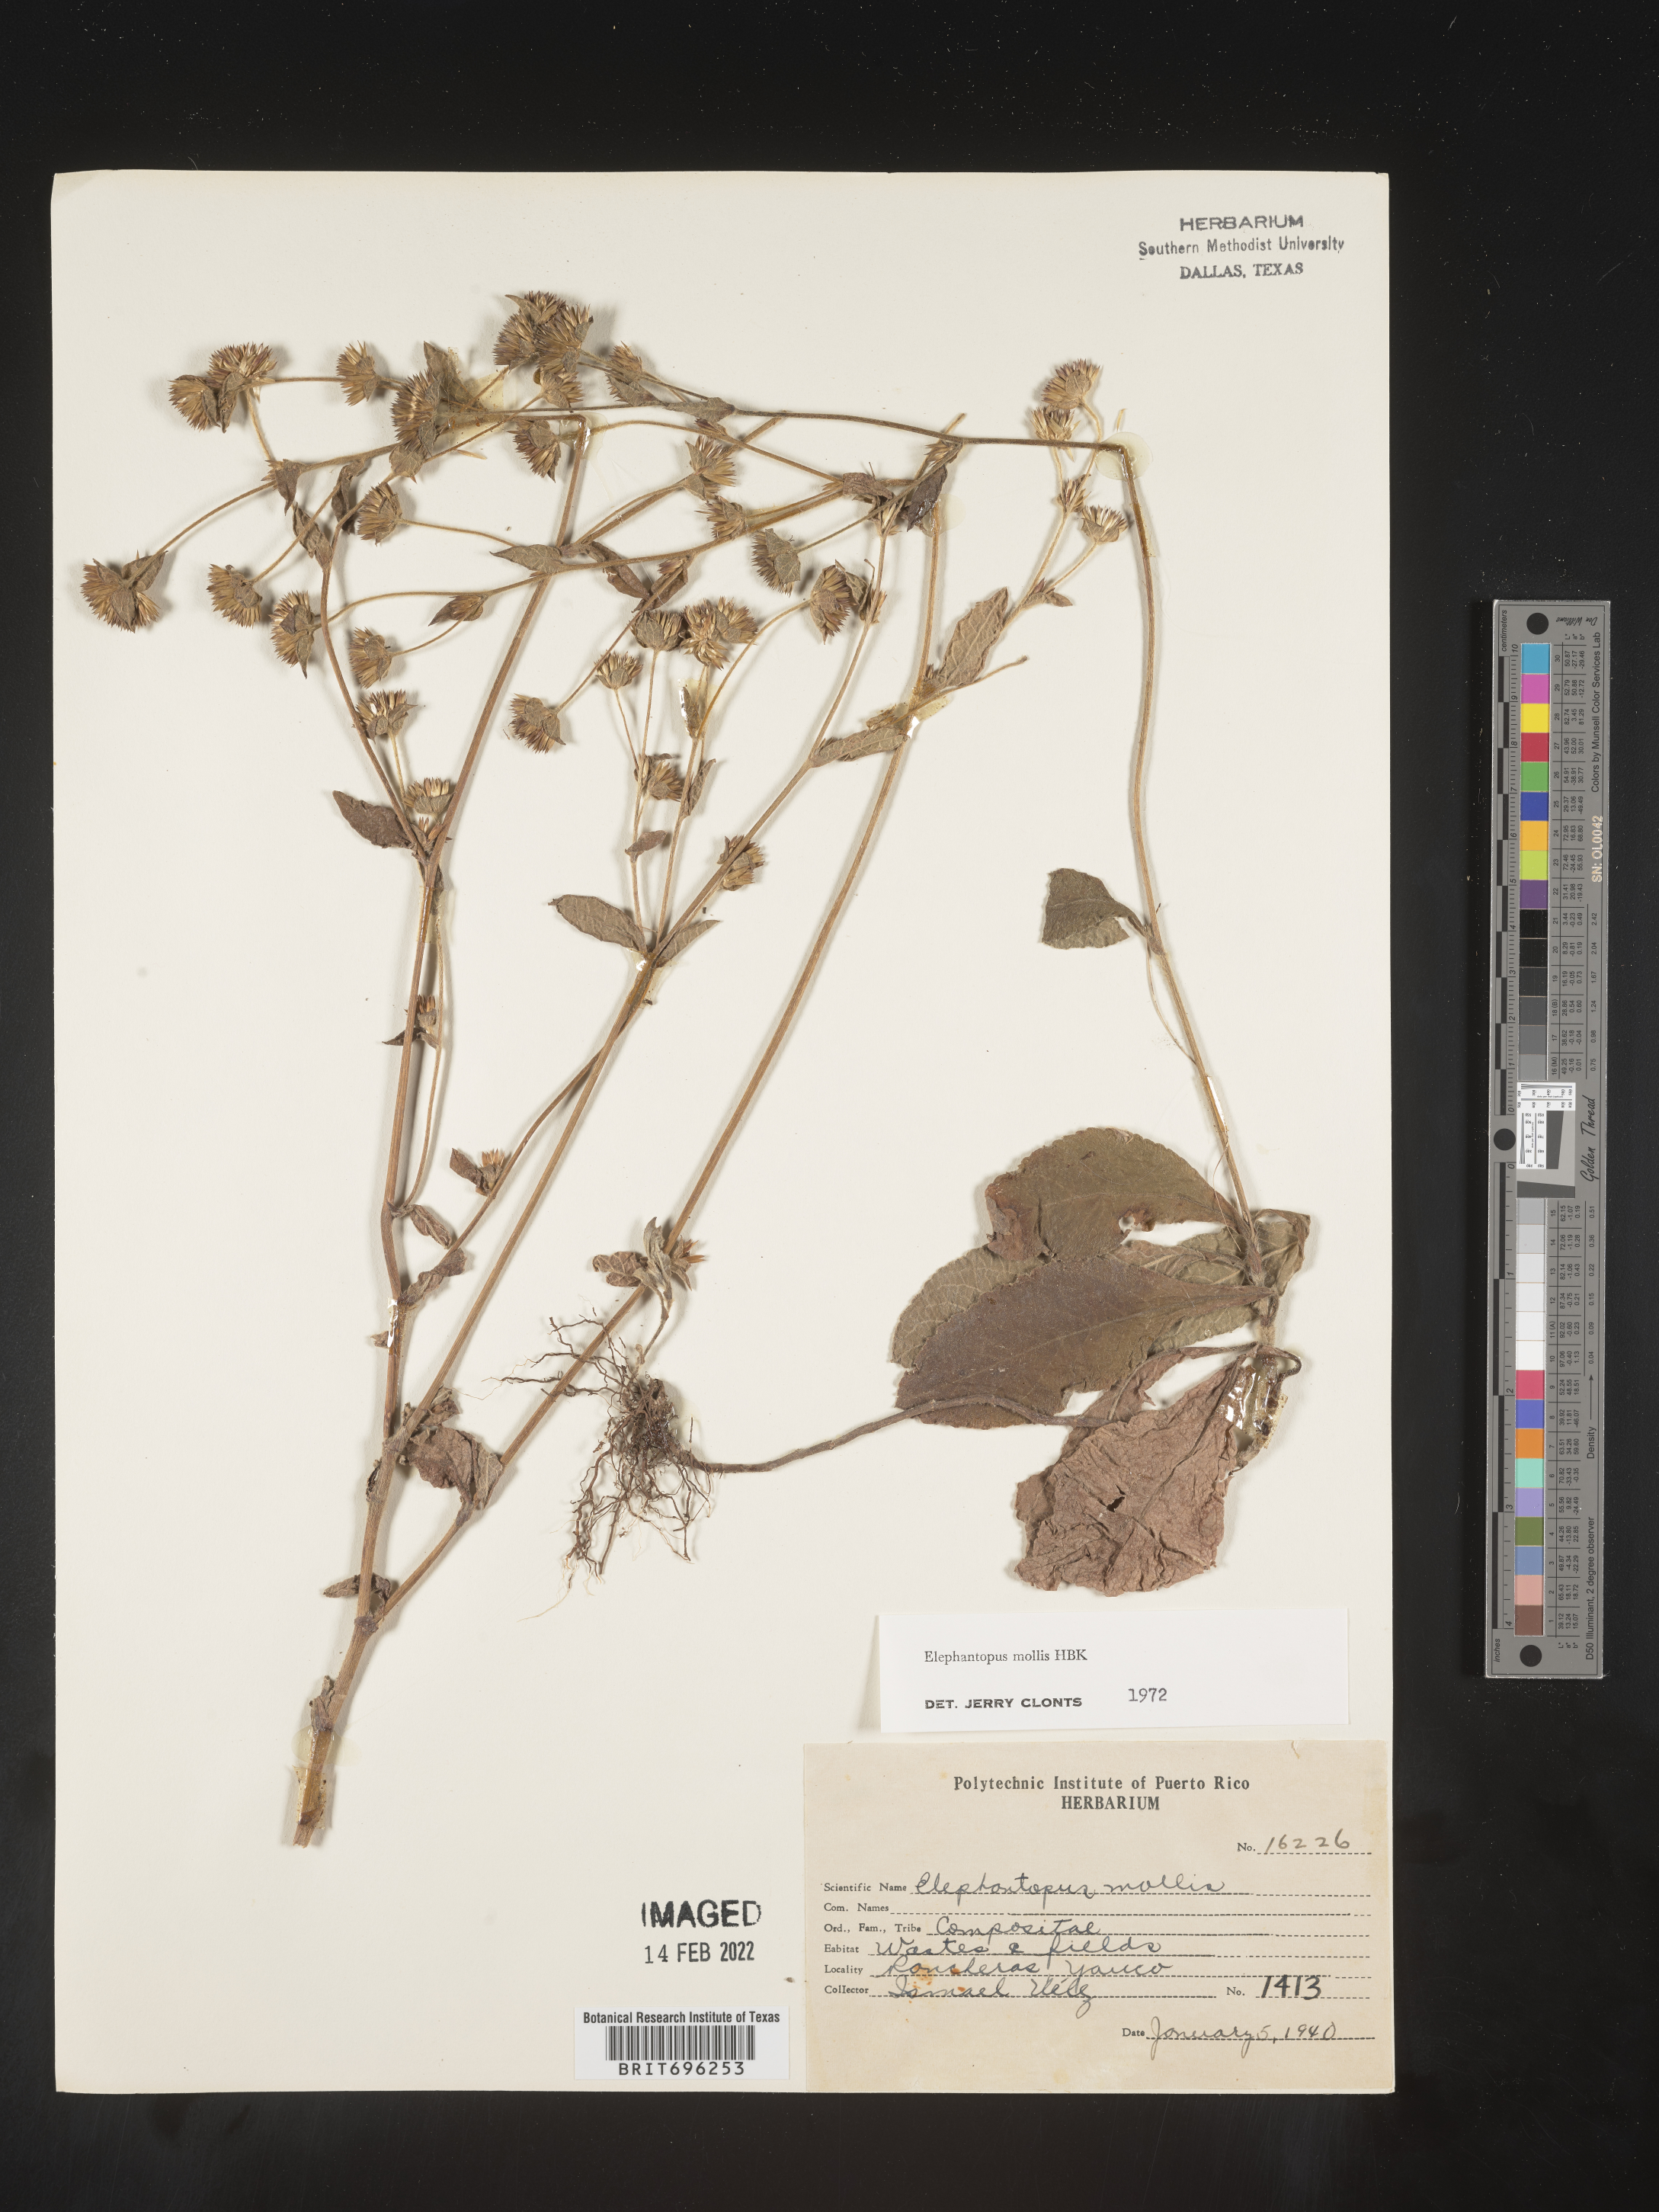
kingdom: Plantae
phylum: Tracheophyta
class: Magnoliopsida
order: Asterales
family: Asteraceae
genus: Elephantopus
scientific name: Elephantopus
